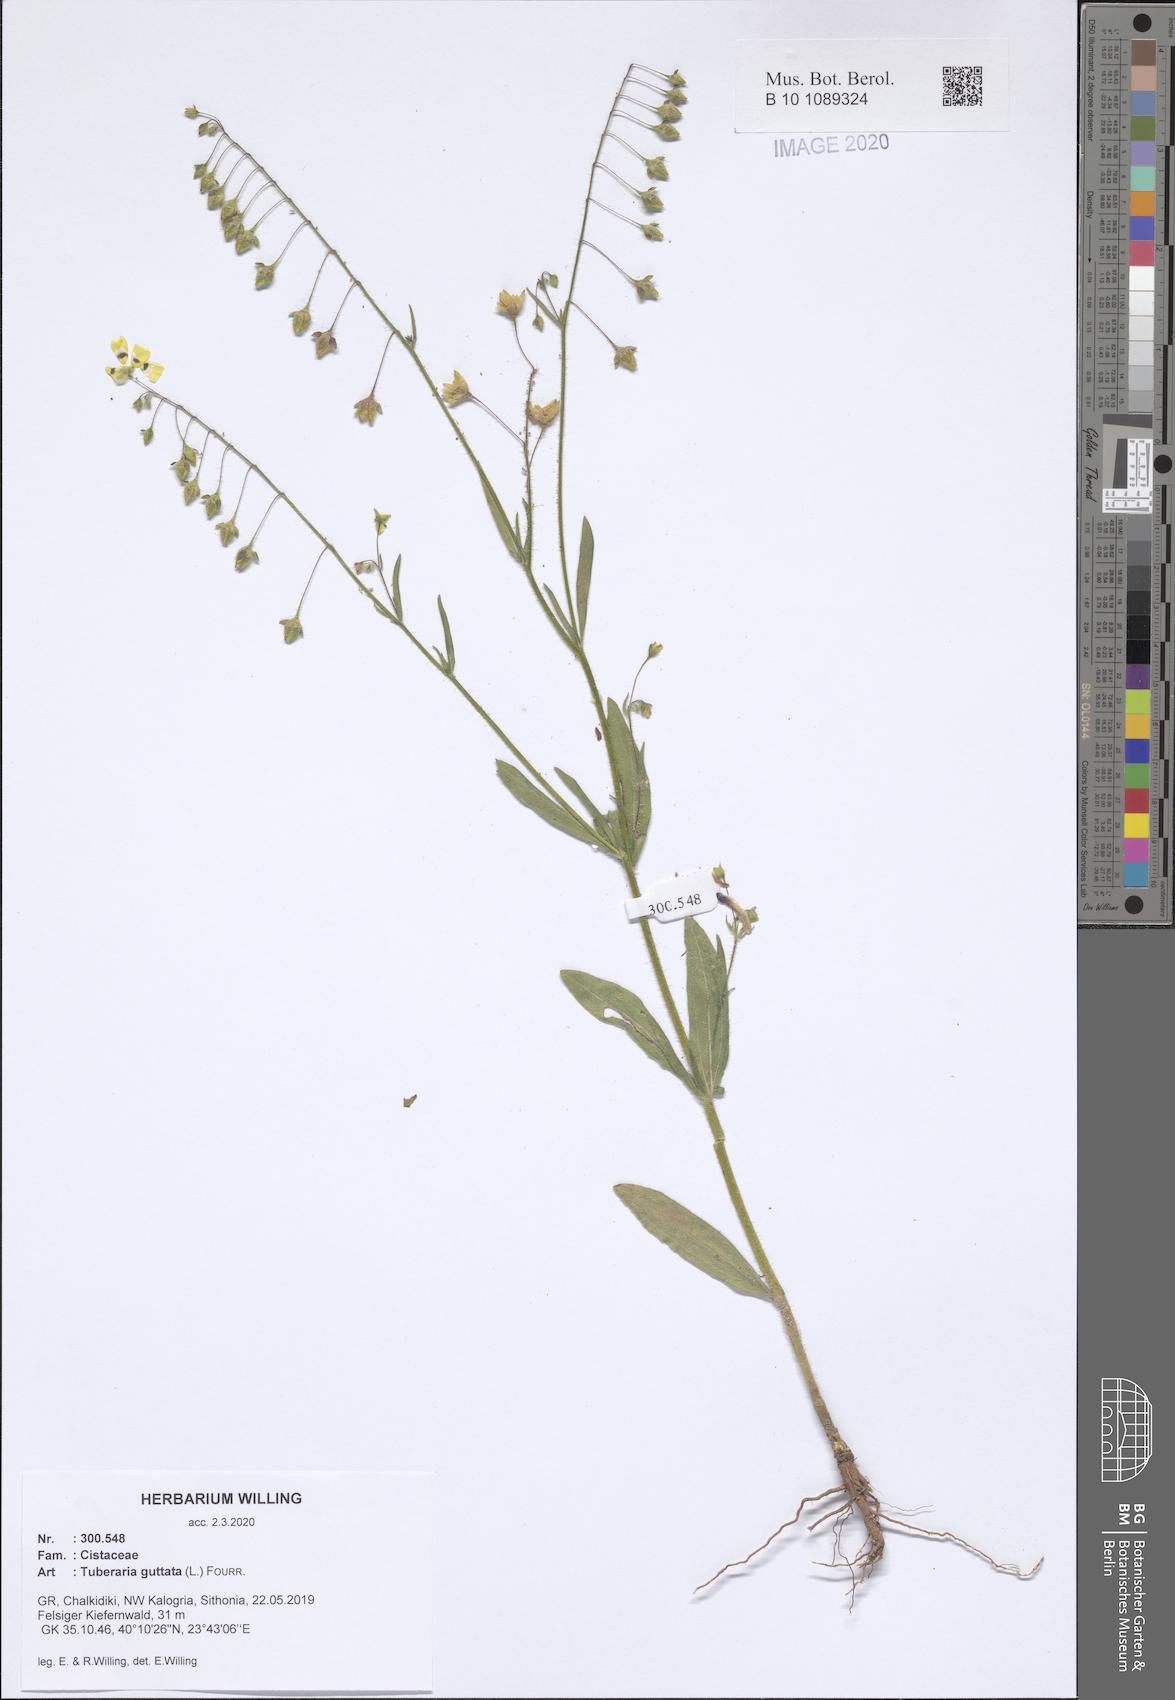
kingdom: Plantae
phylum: Tracheophyta
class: Magnoliopsida
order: Malvales
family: Cistaceae
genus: Tuberaria
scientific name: Tuberaria guttata
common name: Spotted rock-rose
